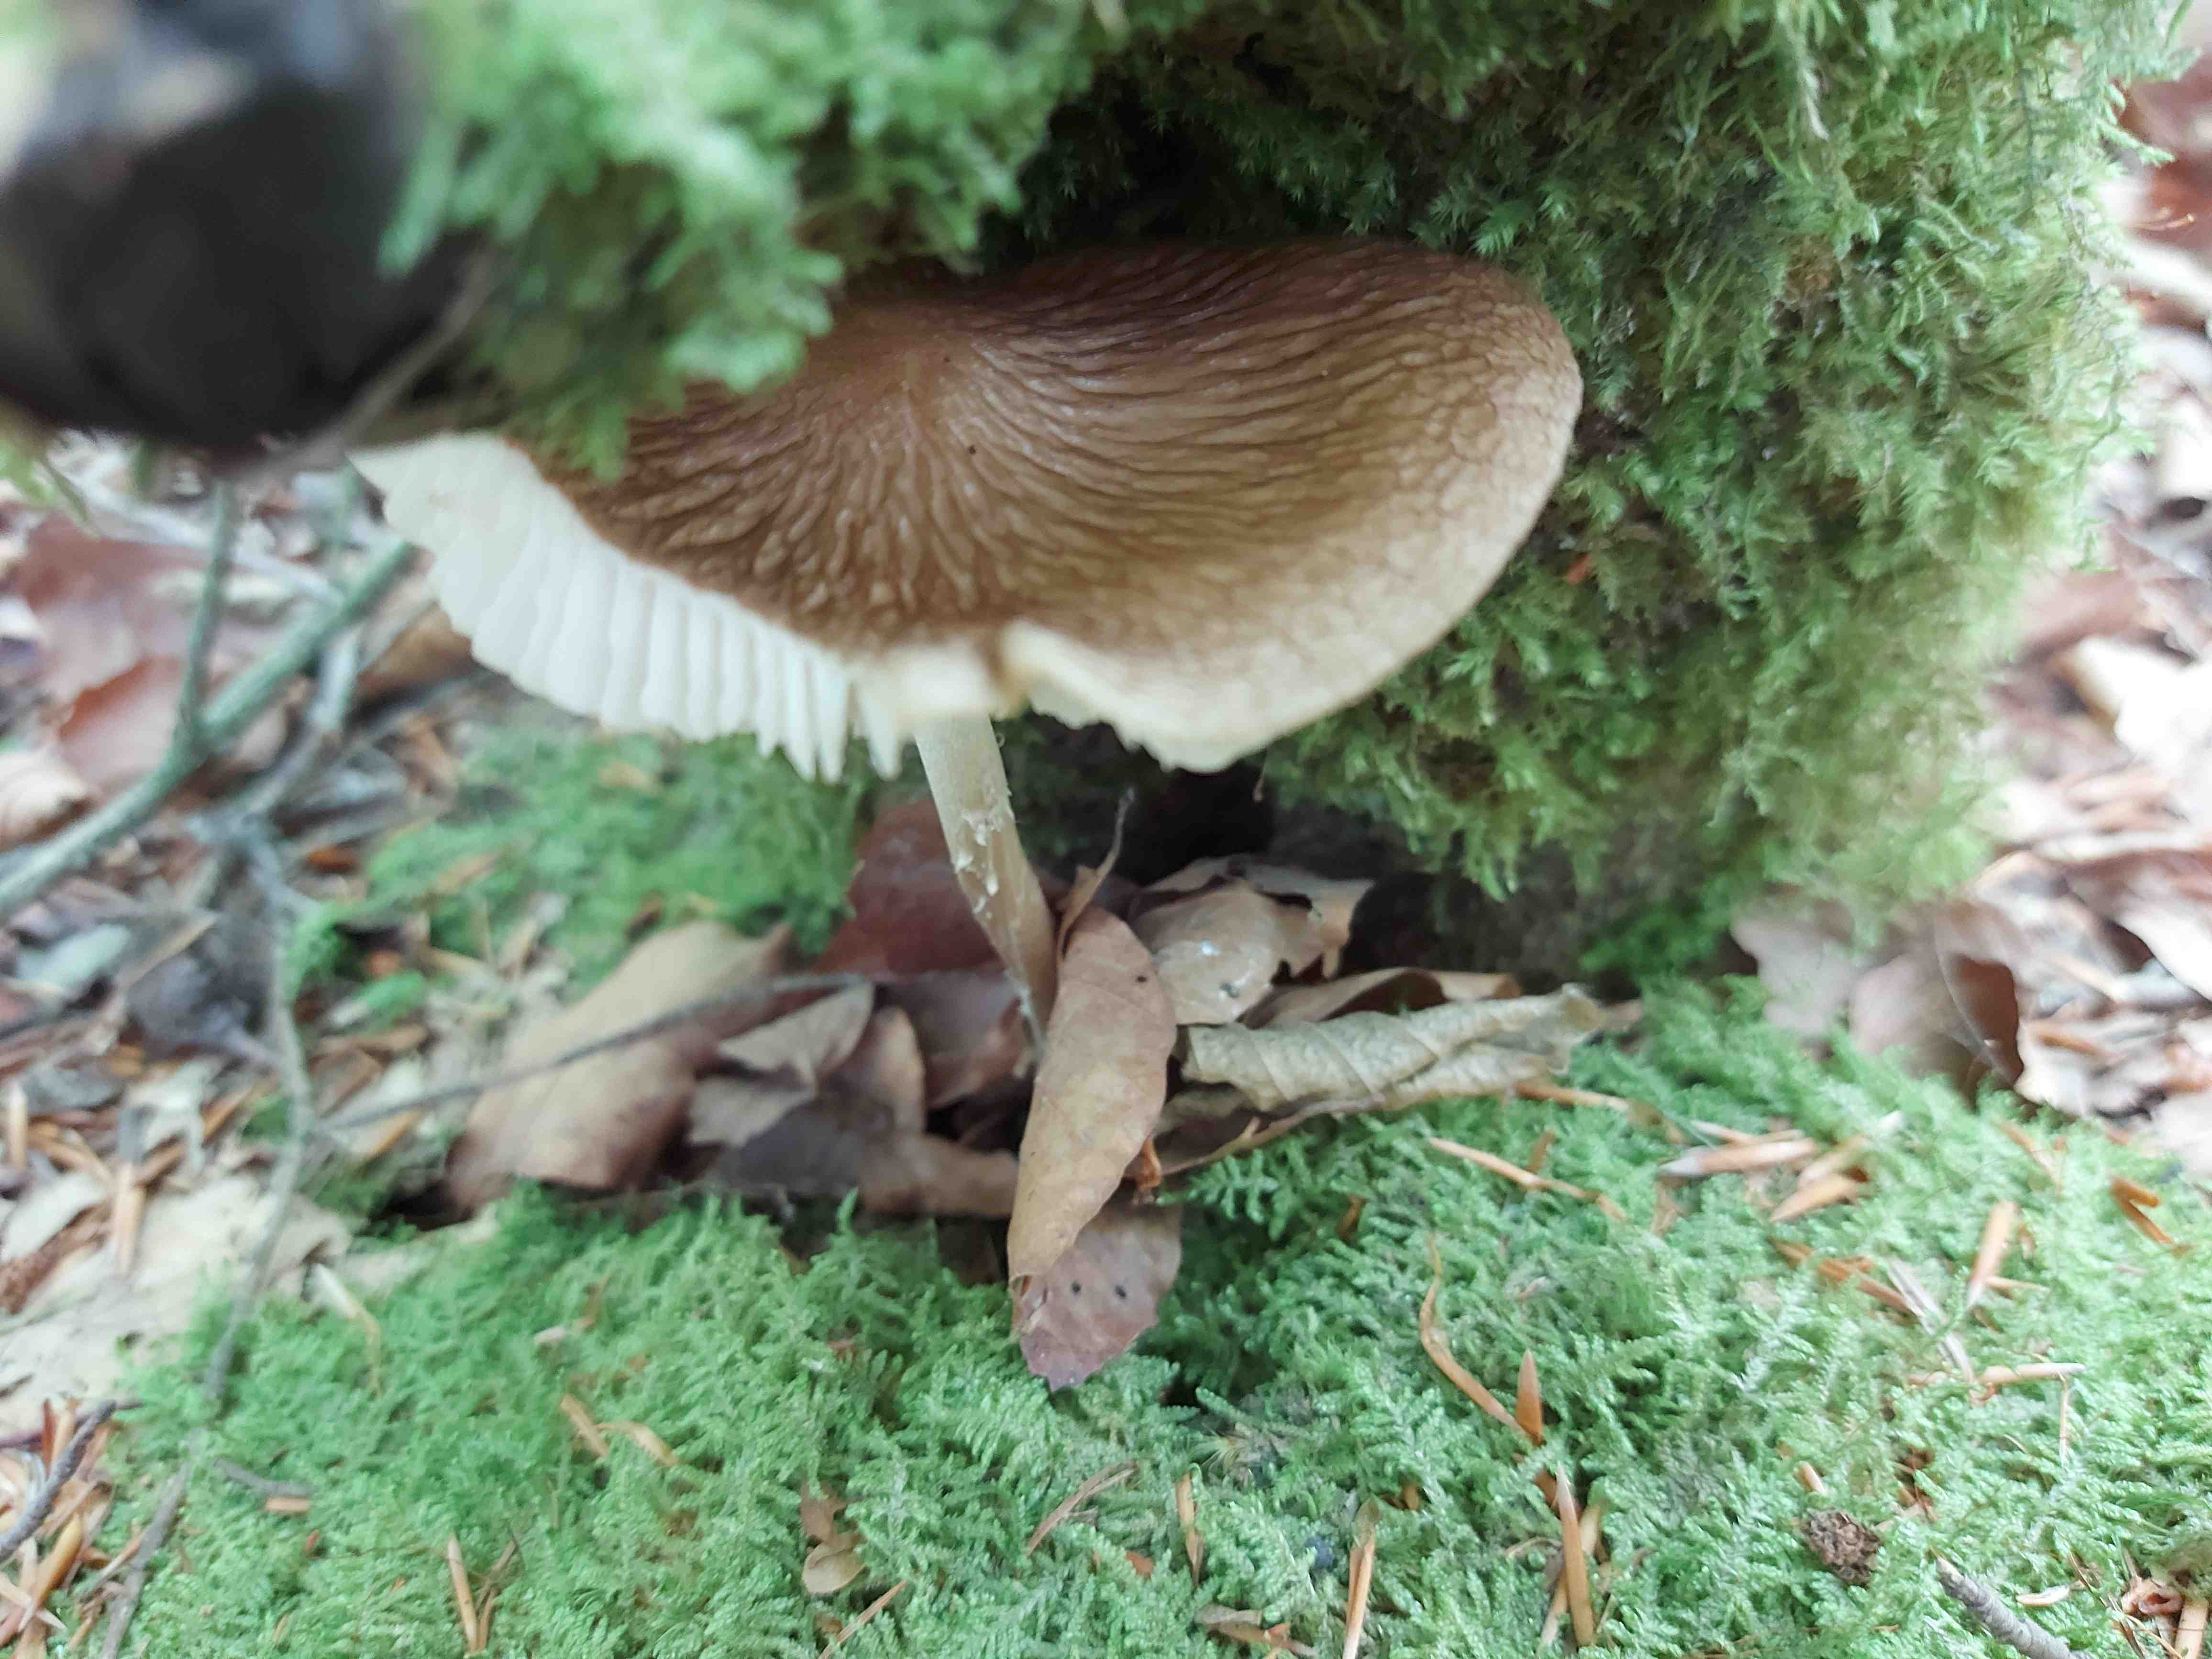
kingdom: Fungi
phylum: Basidiomycota
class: Agaricomycetes
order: Agaricales
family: Physalacriaceae
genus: Hymenopellis
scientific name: Hymenopellis radicata
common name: almindelig pælerodshat
